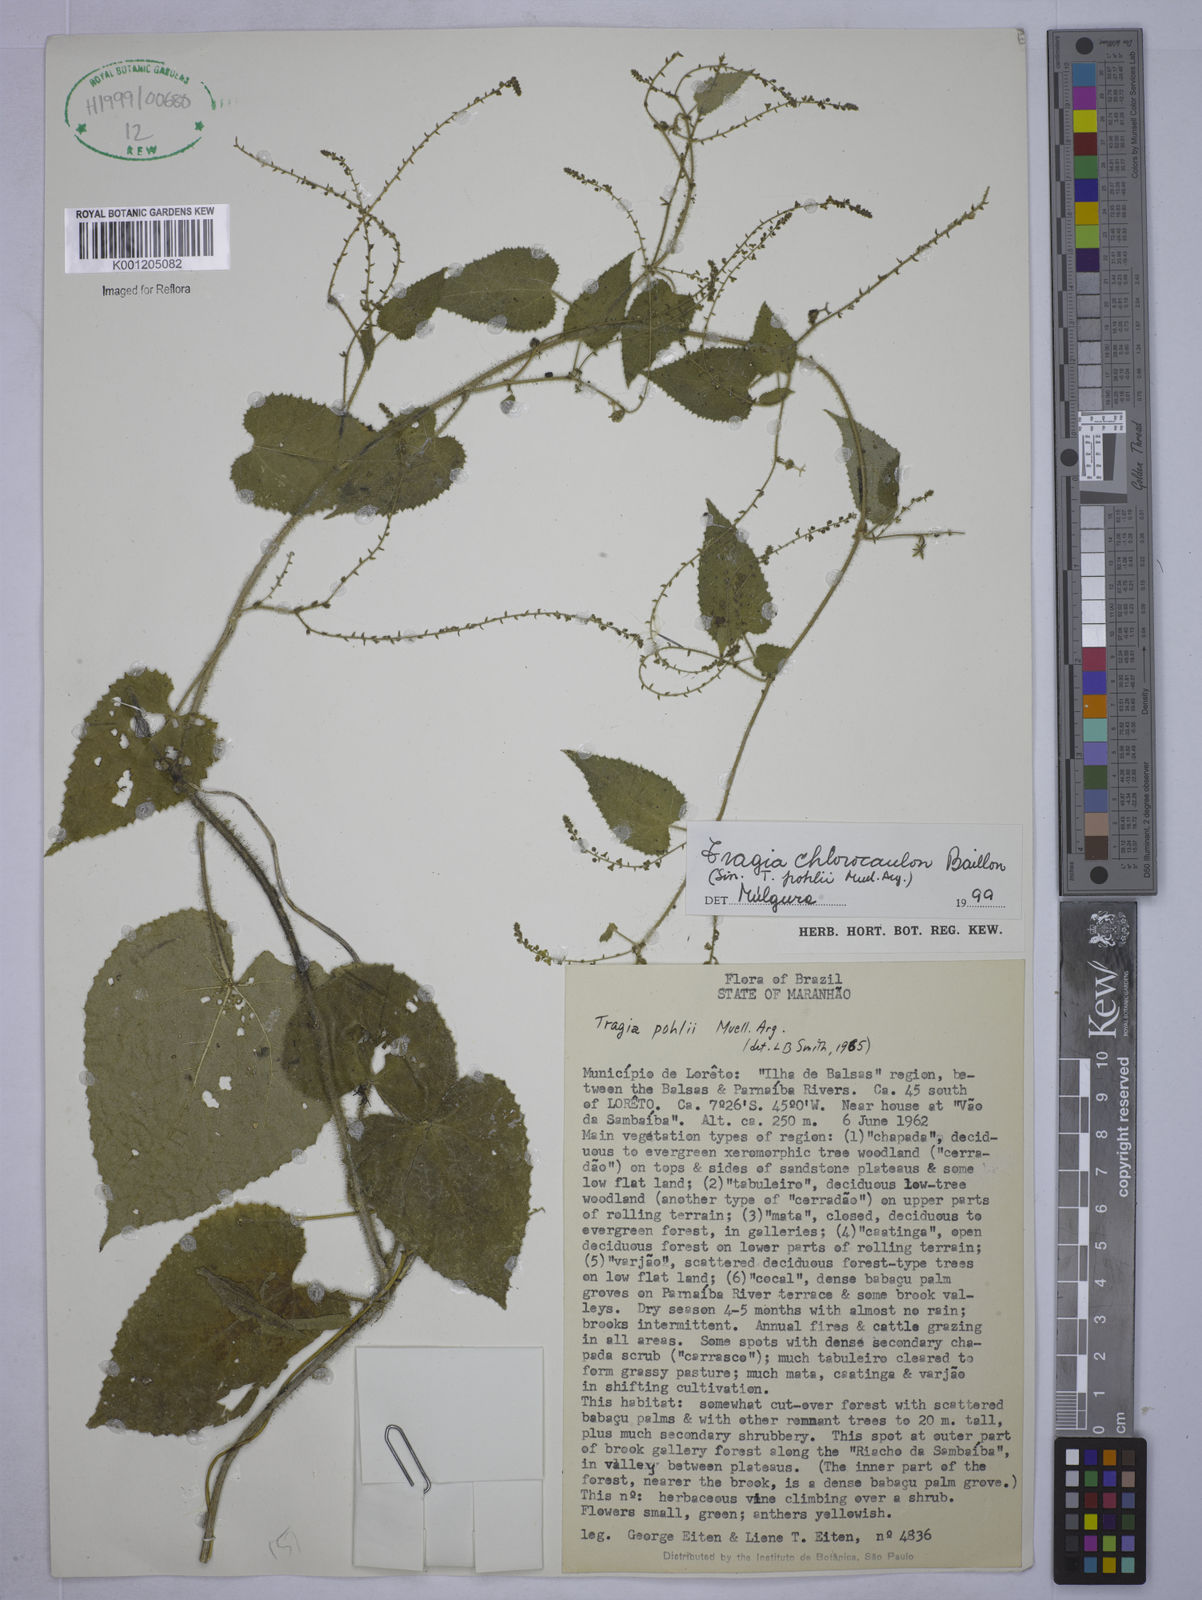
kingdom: Plantae
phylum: Tracheophyta
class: Magnoliopsida
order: Malpighiales
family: Euphorbiaceae
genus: Tragia
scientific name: Tragia chlorocaulon
